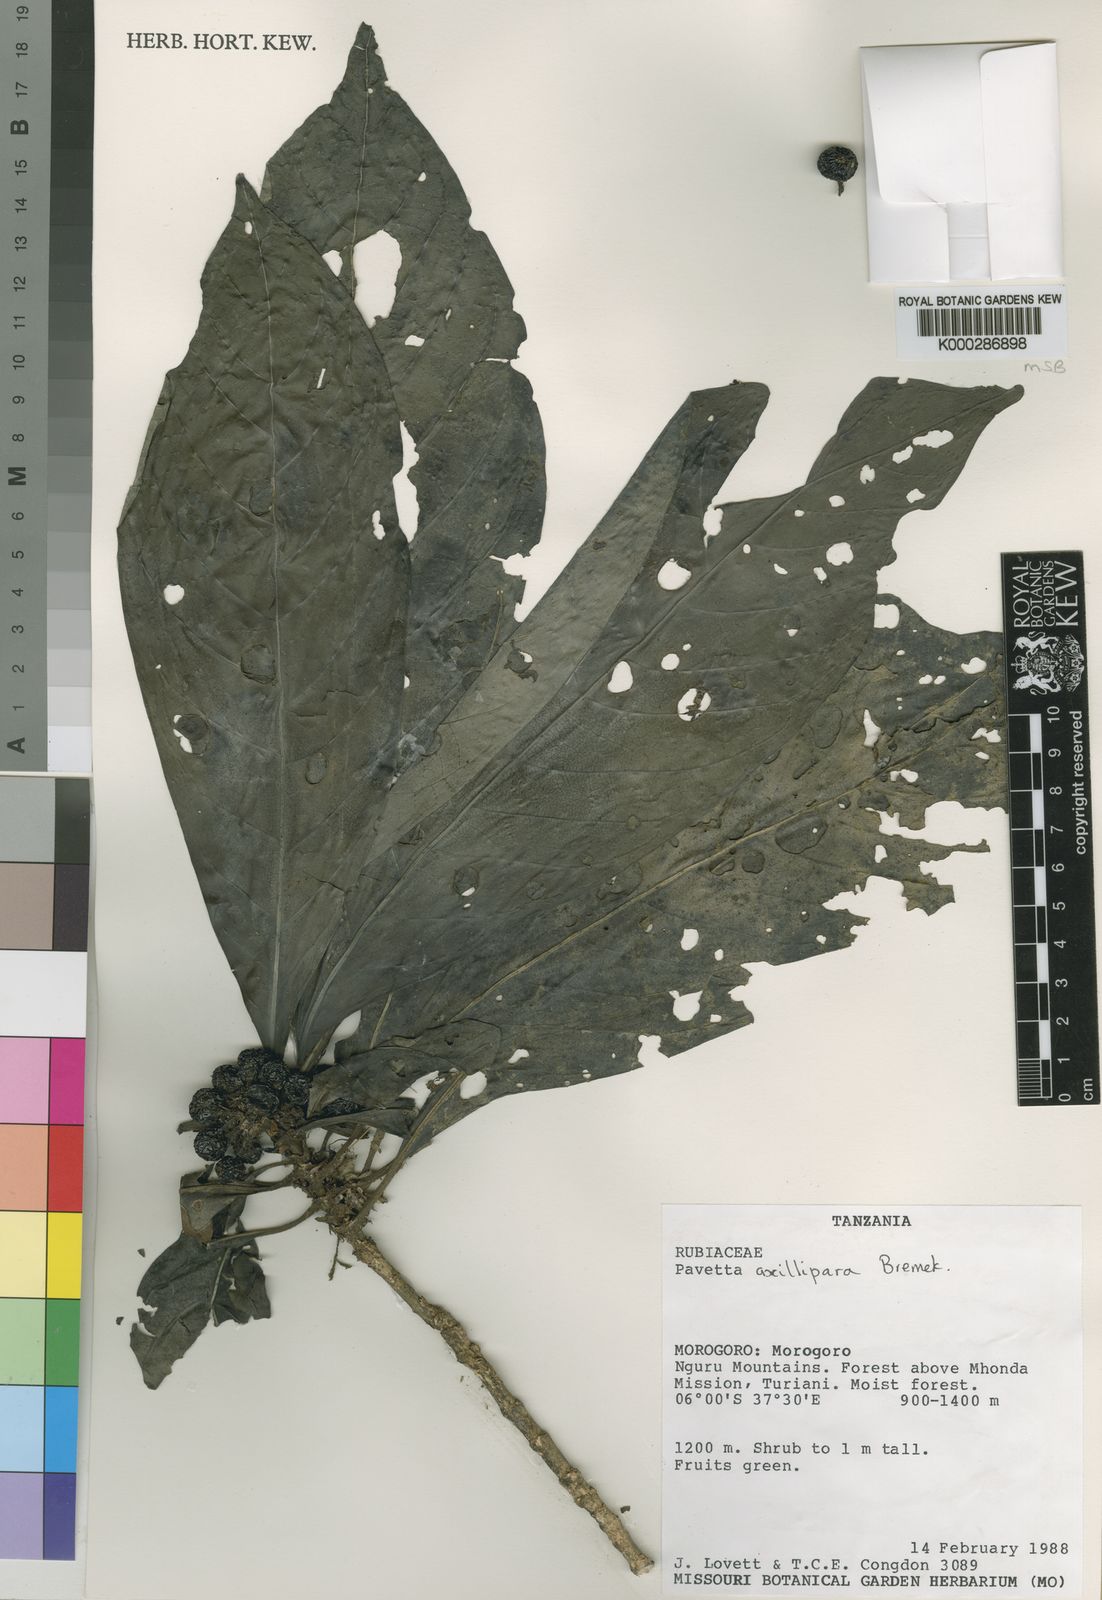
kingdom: Plantae
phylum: Tracheophyta
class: Magnoliopsida
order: Gentianales
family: Rubiaceae
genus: Pavetta
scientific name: Pavetta axillipara
